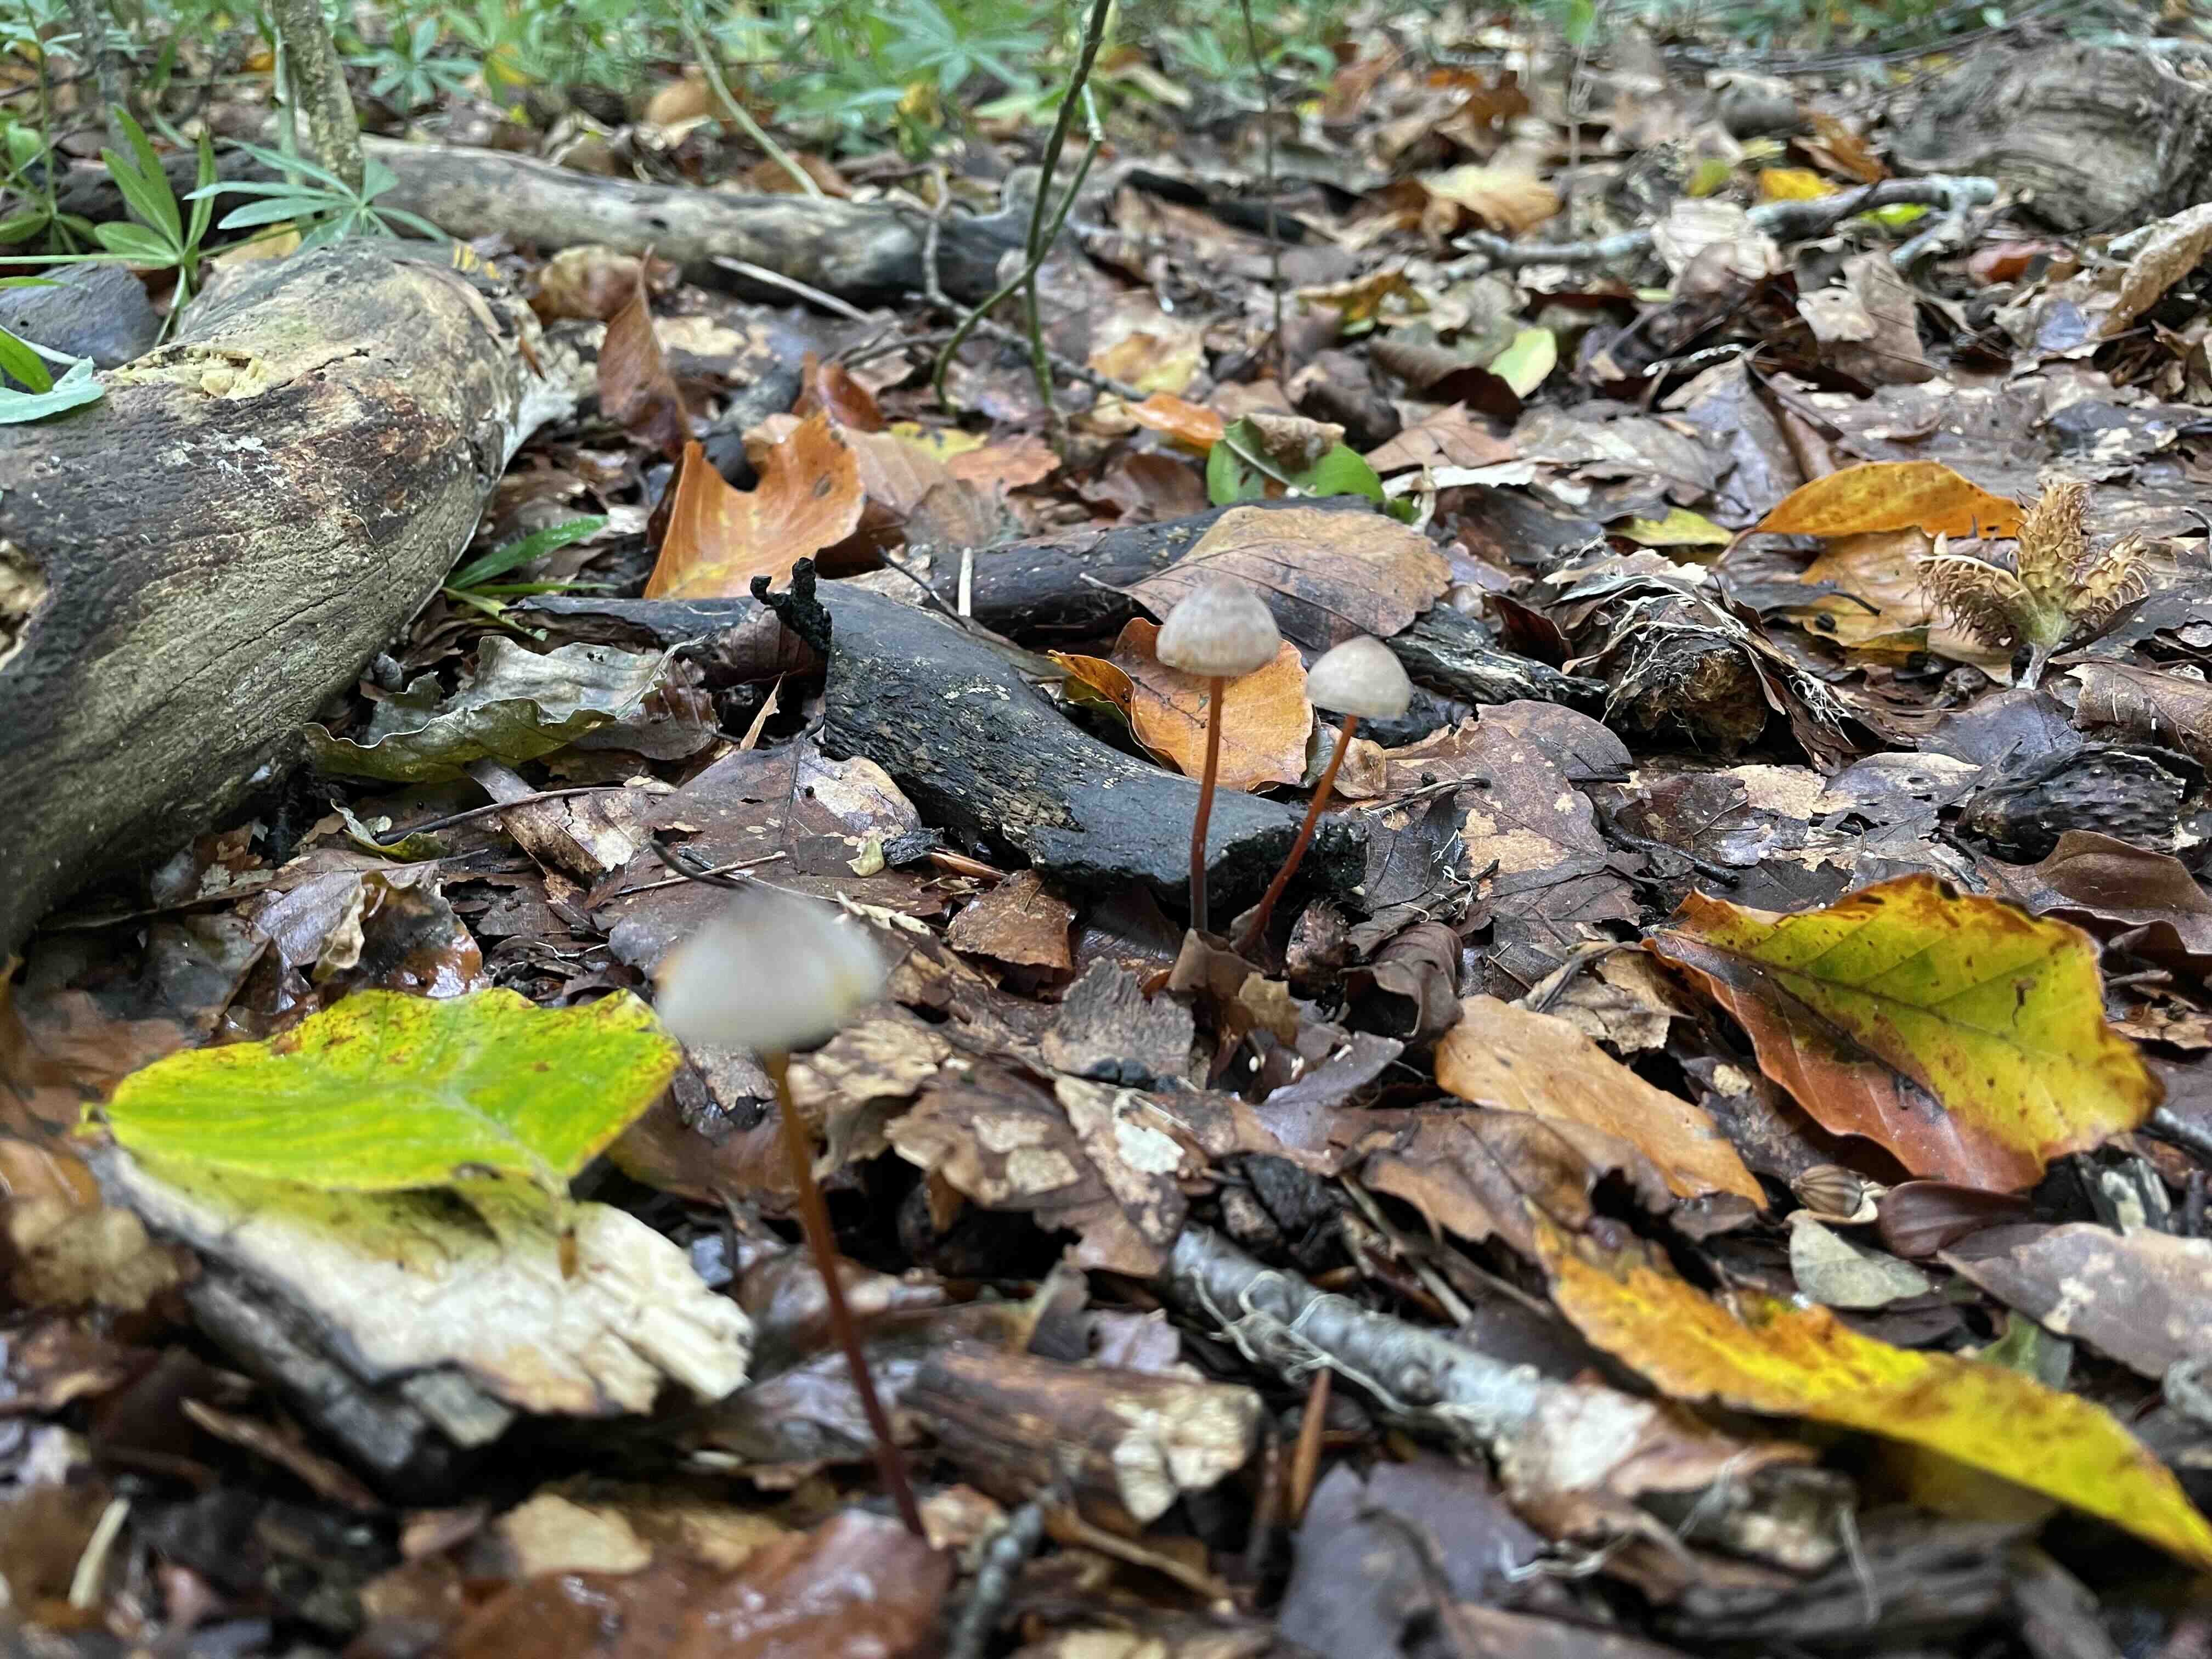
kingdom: Fungi
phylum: Basidiomycota
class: Agaricomycetes
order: Agaricales
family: Mycenaceae
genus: Mycena
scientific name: Mycena crocata
